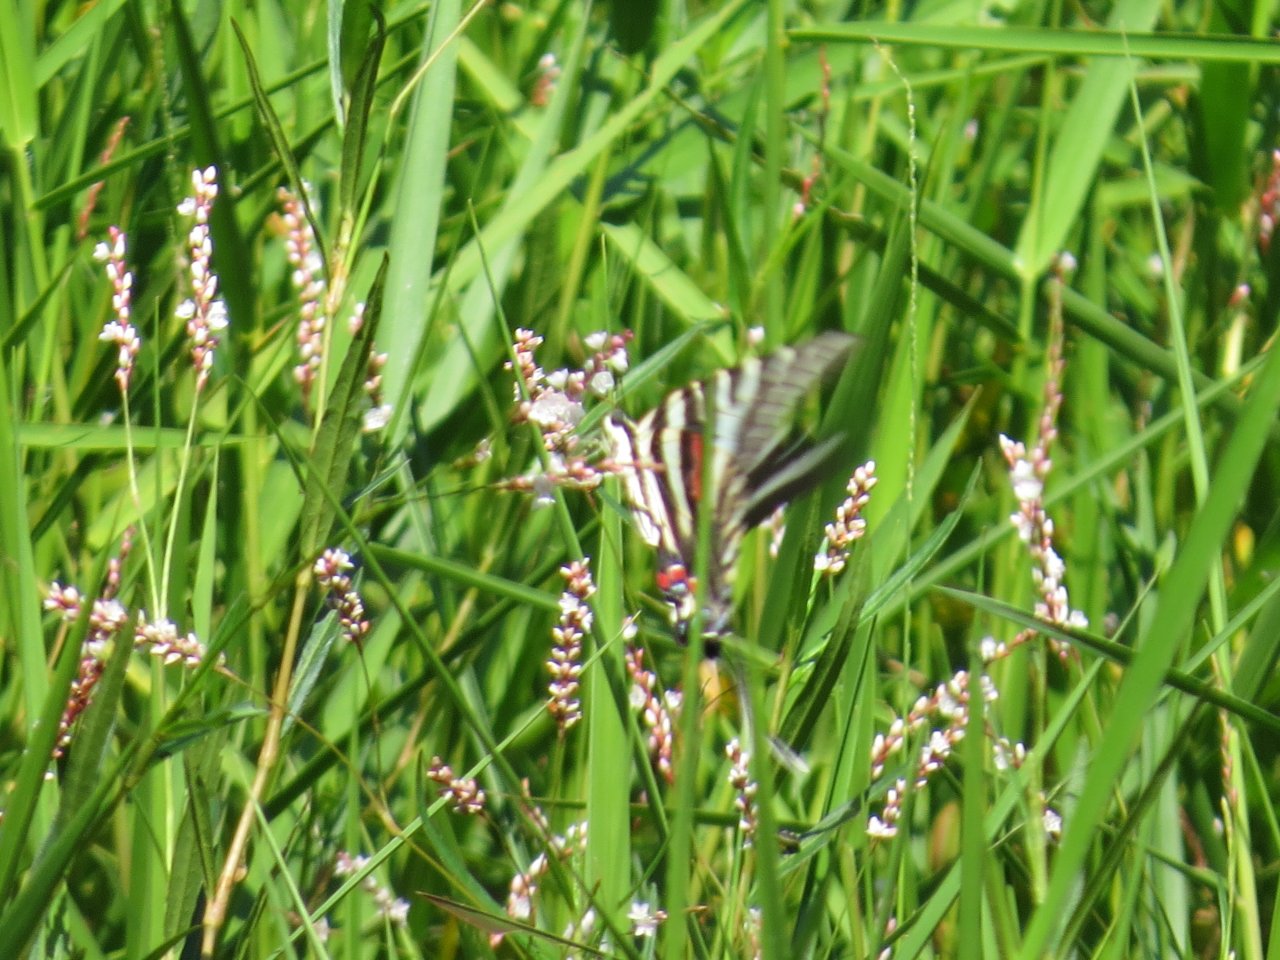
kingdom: Animalia
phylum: Arthropoda
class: Insecta
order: Lepidoptera
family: Papilionidae
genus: Protographium
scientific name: Protographium marcellus
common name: Zebra Swallowtail
